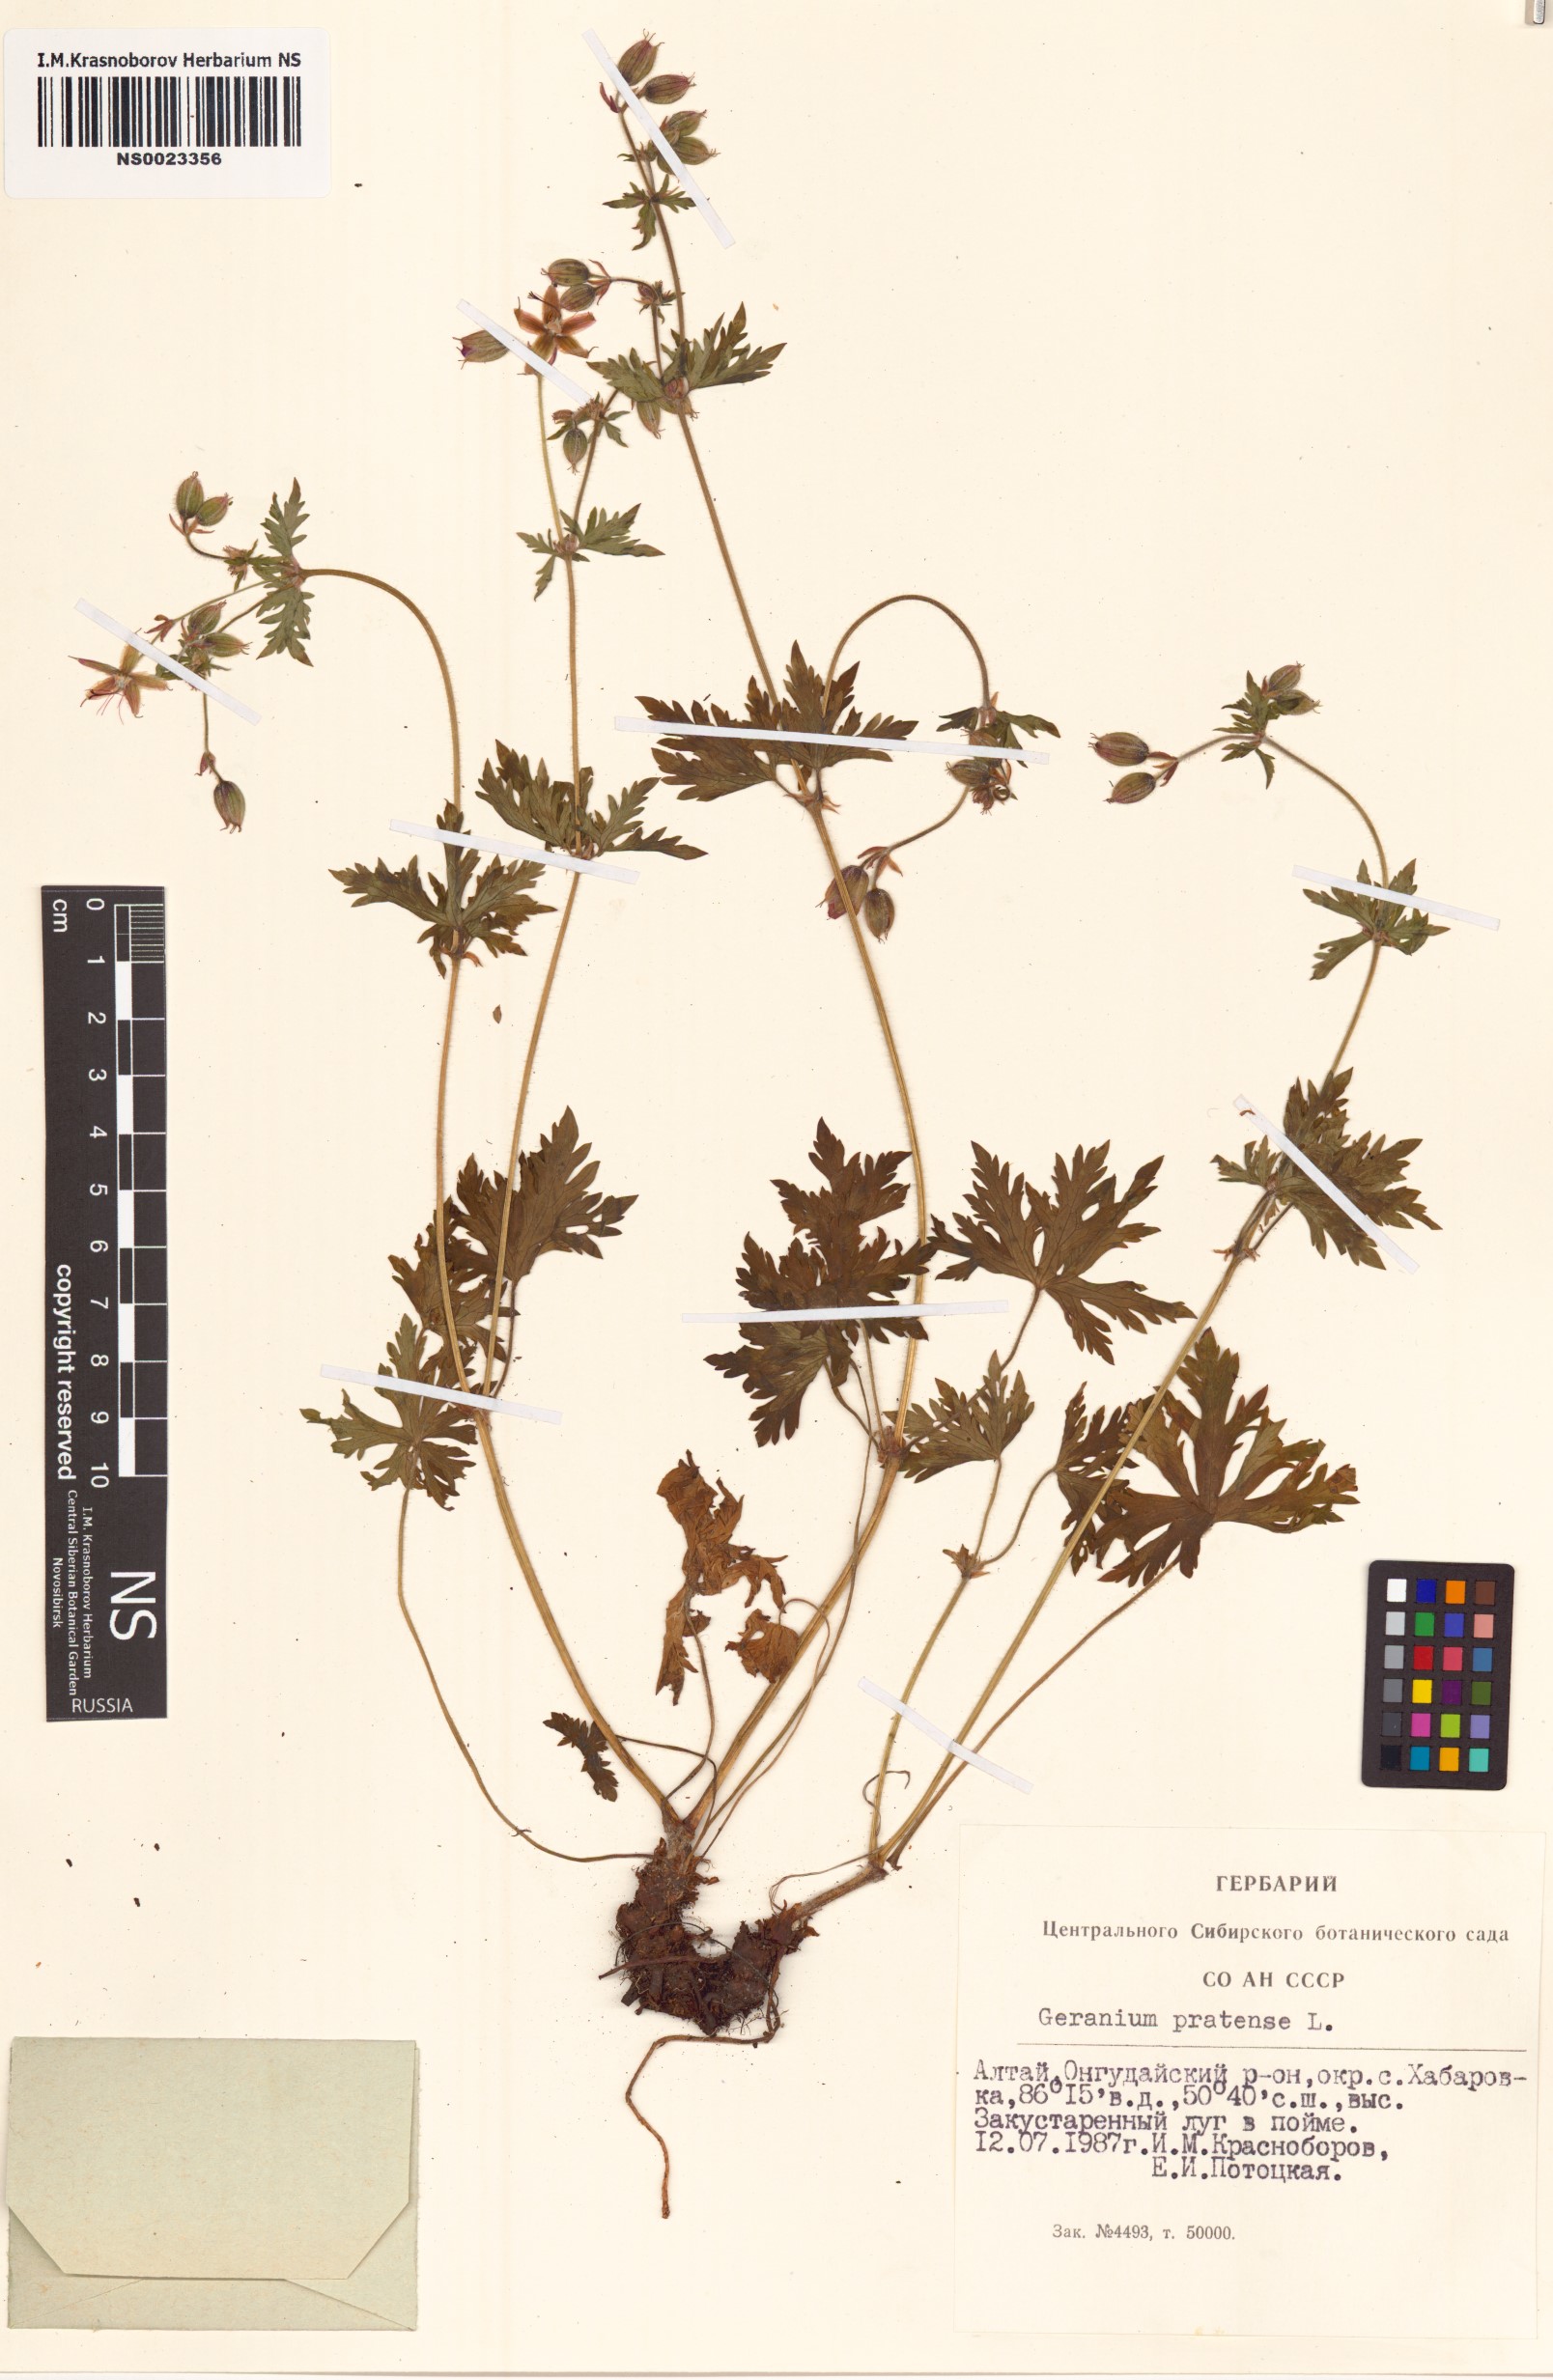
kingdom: Plantae
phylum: Tracheophyta
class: Magnoliopsida
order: Geraniales
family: Geraniaceae
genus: Geranium
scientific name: Geranium pratense
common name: Meadow crane's-bill
